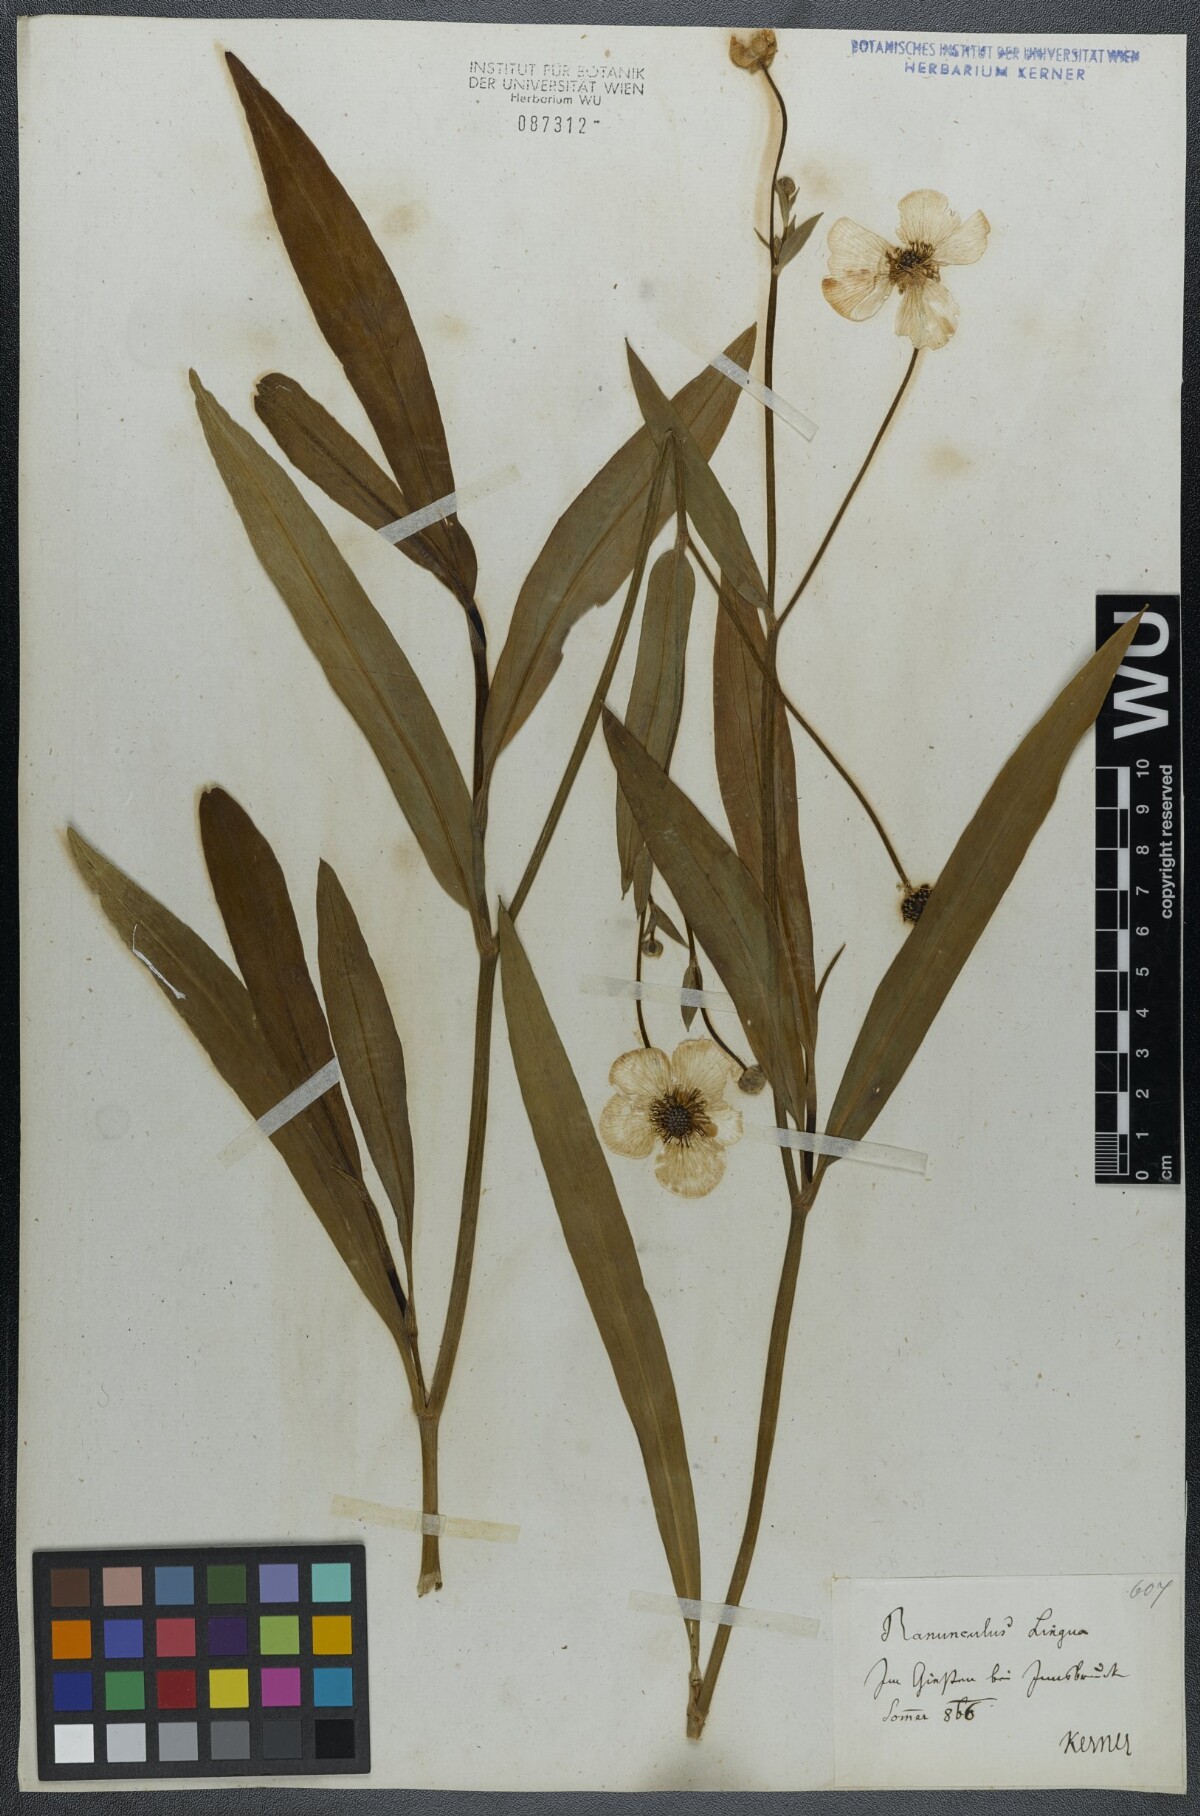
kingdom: Plantae
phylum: Tracheophyta
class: Magnoliopsida
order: Ranunculales
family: Ranunculaceae
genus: Ranunculus
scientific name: Ranunculus lingua
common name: Greater spearwort
